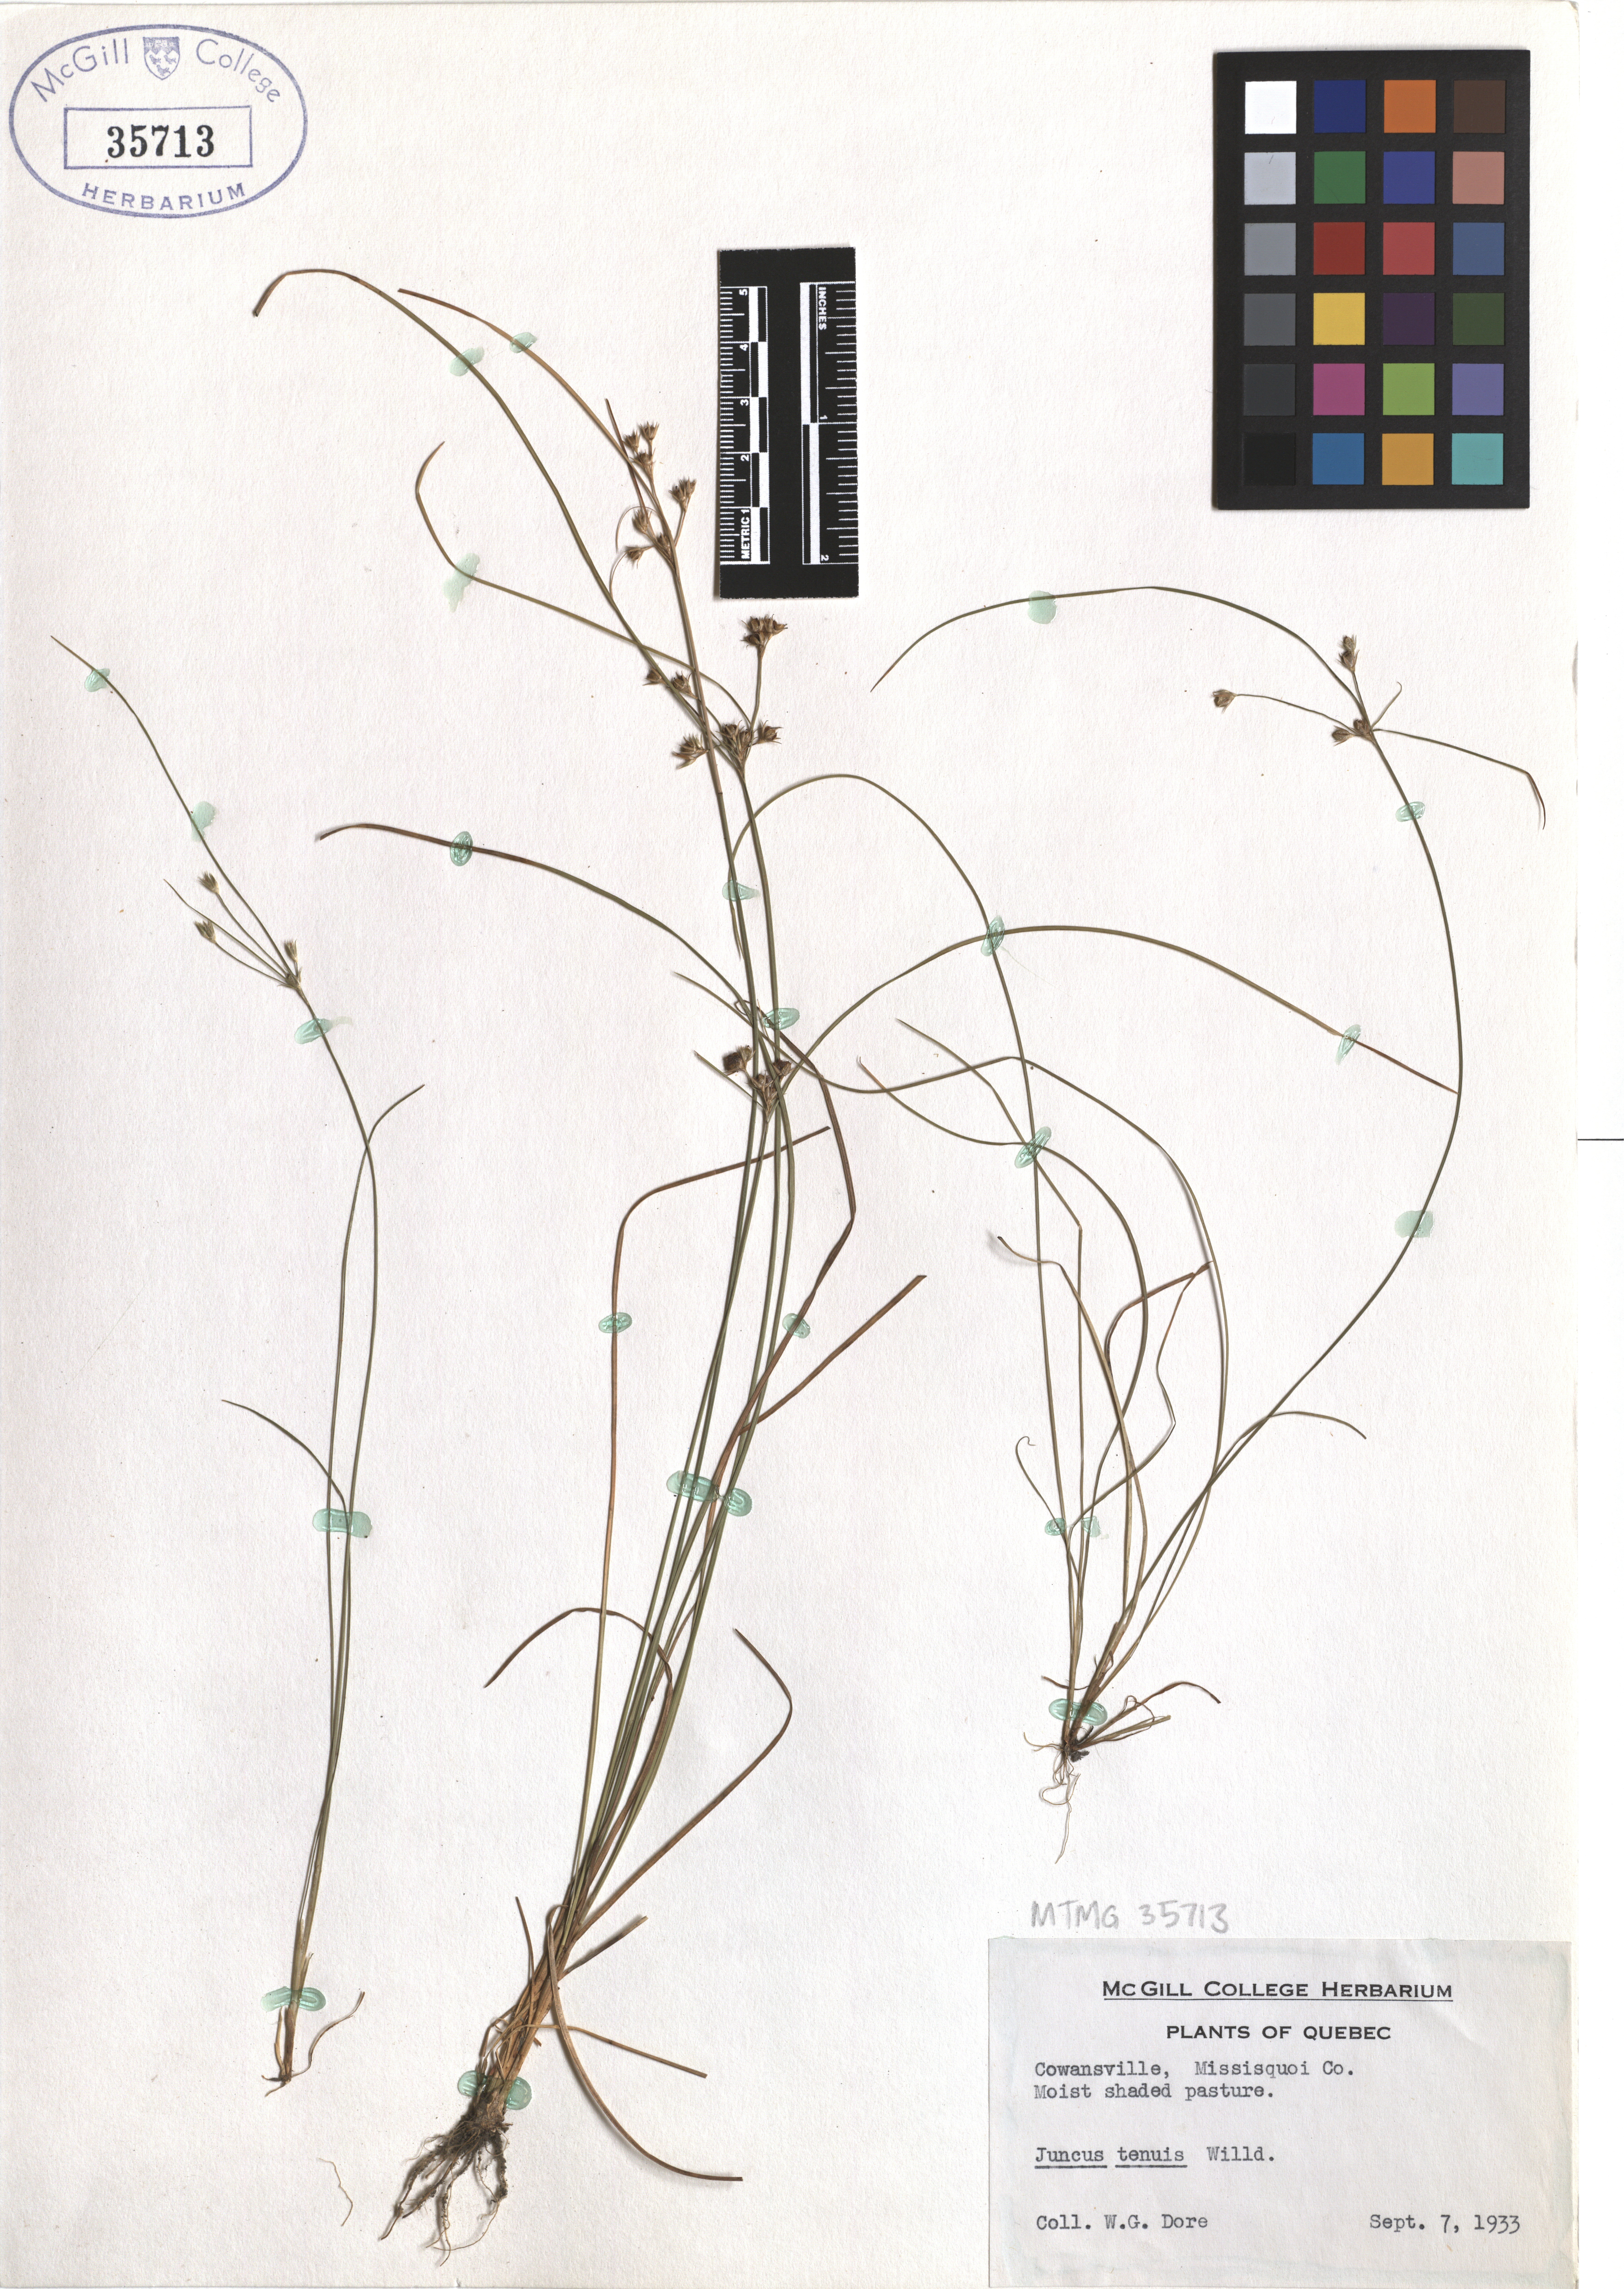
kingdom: Plantae
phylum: Tracheophyta
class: Liliopsida
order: Poales
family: Juncaceae
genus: Juncus
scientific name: Juncus tenuis
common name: Slender rush
